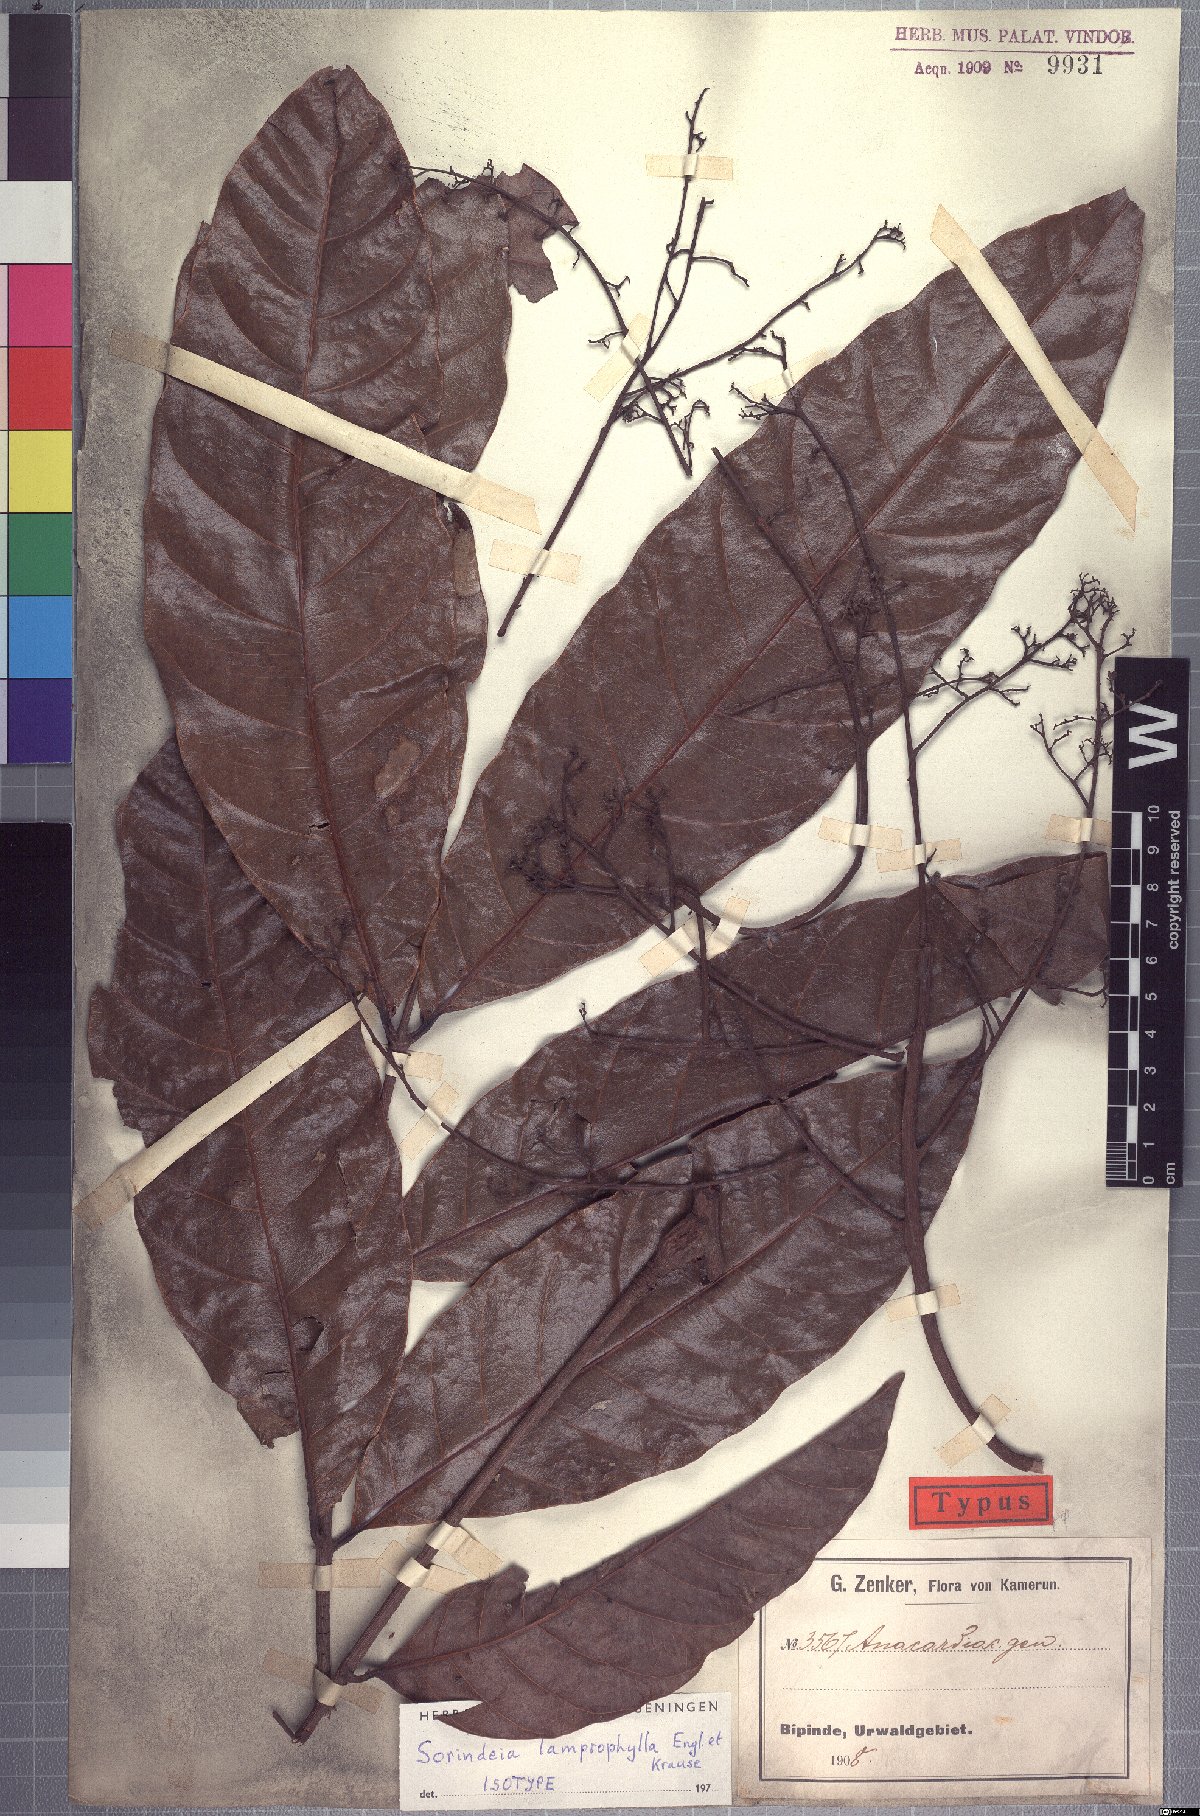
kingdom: Plantae
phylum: Tracheophyta
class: Magnoliopsida
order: Sapindales
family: Anacardiaceae
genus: Sorindeia
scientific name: Sorindeia africana
